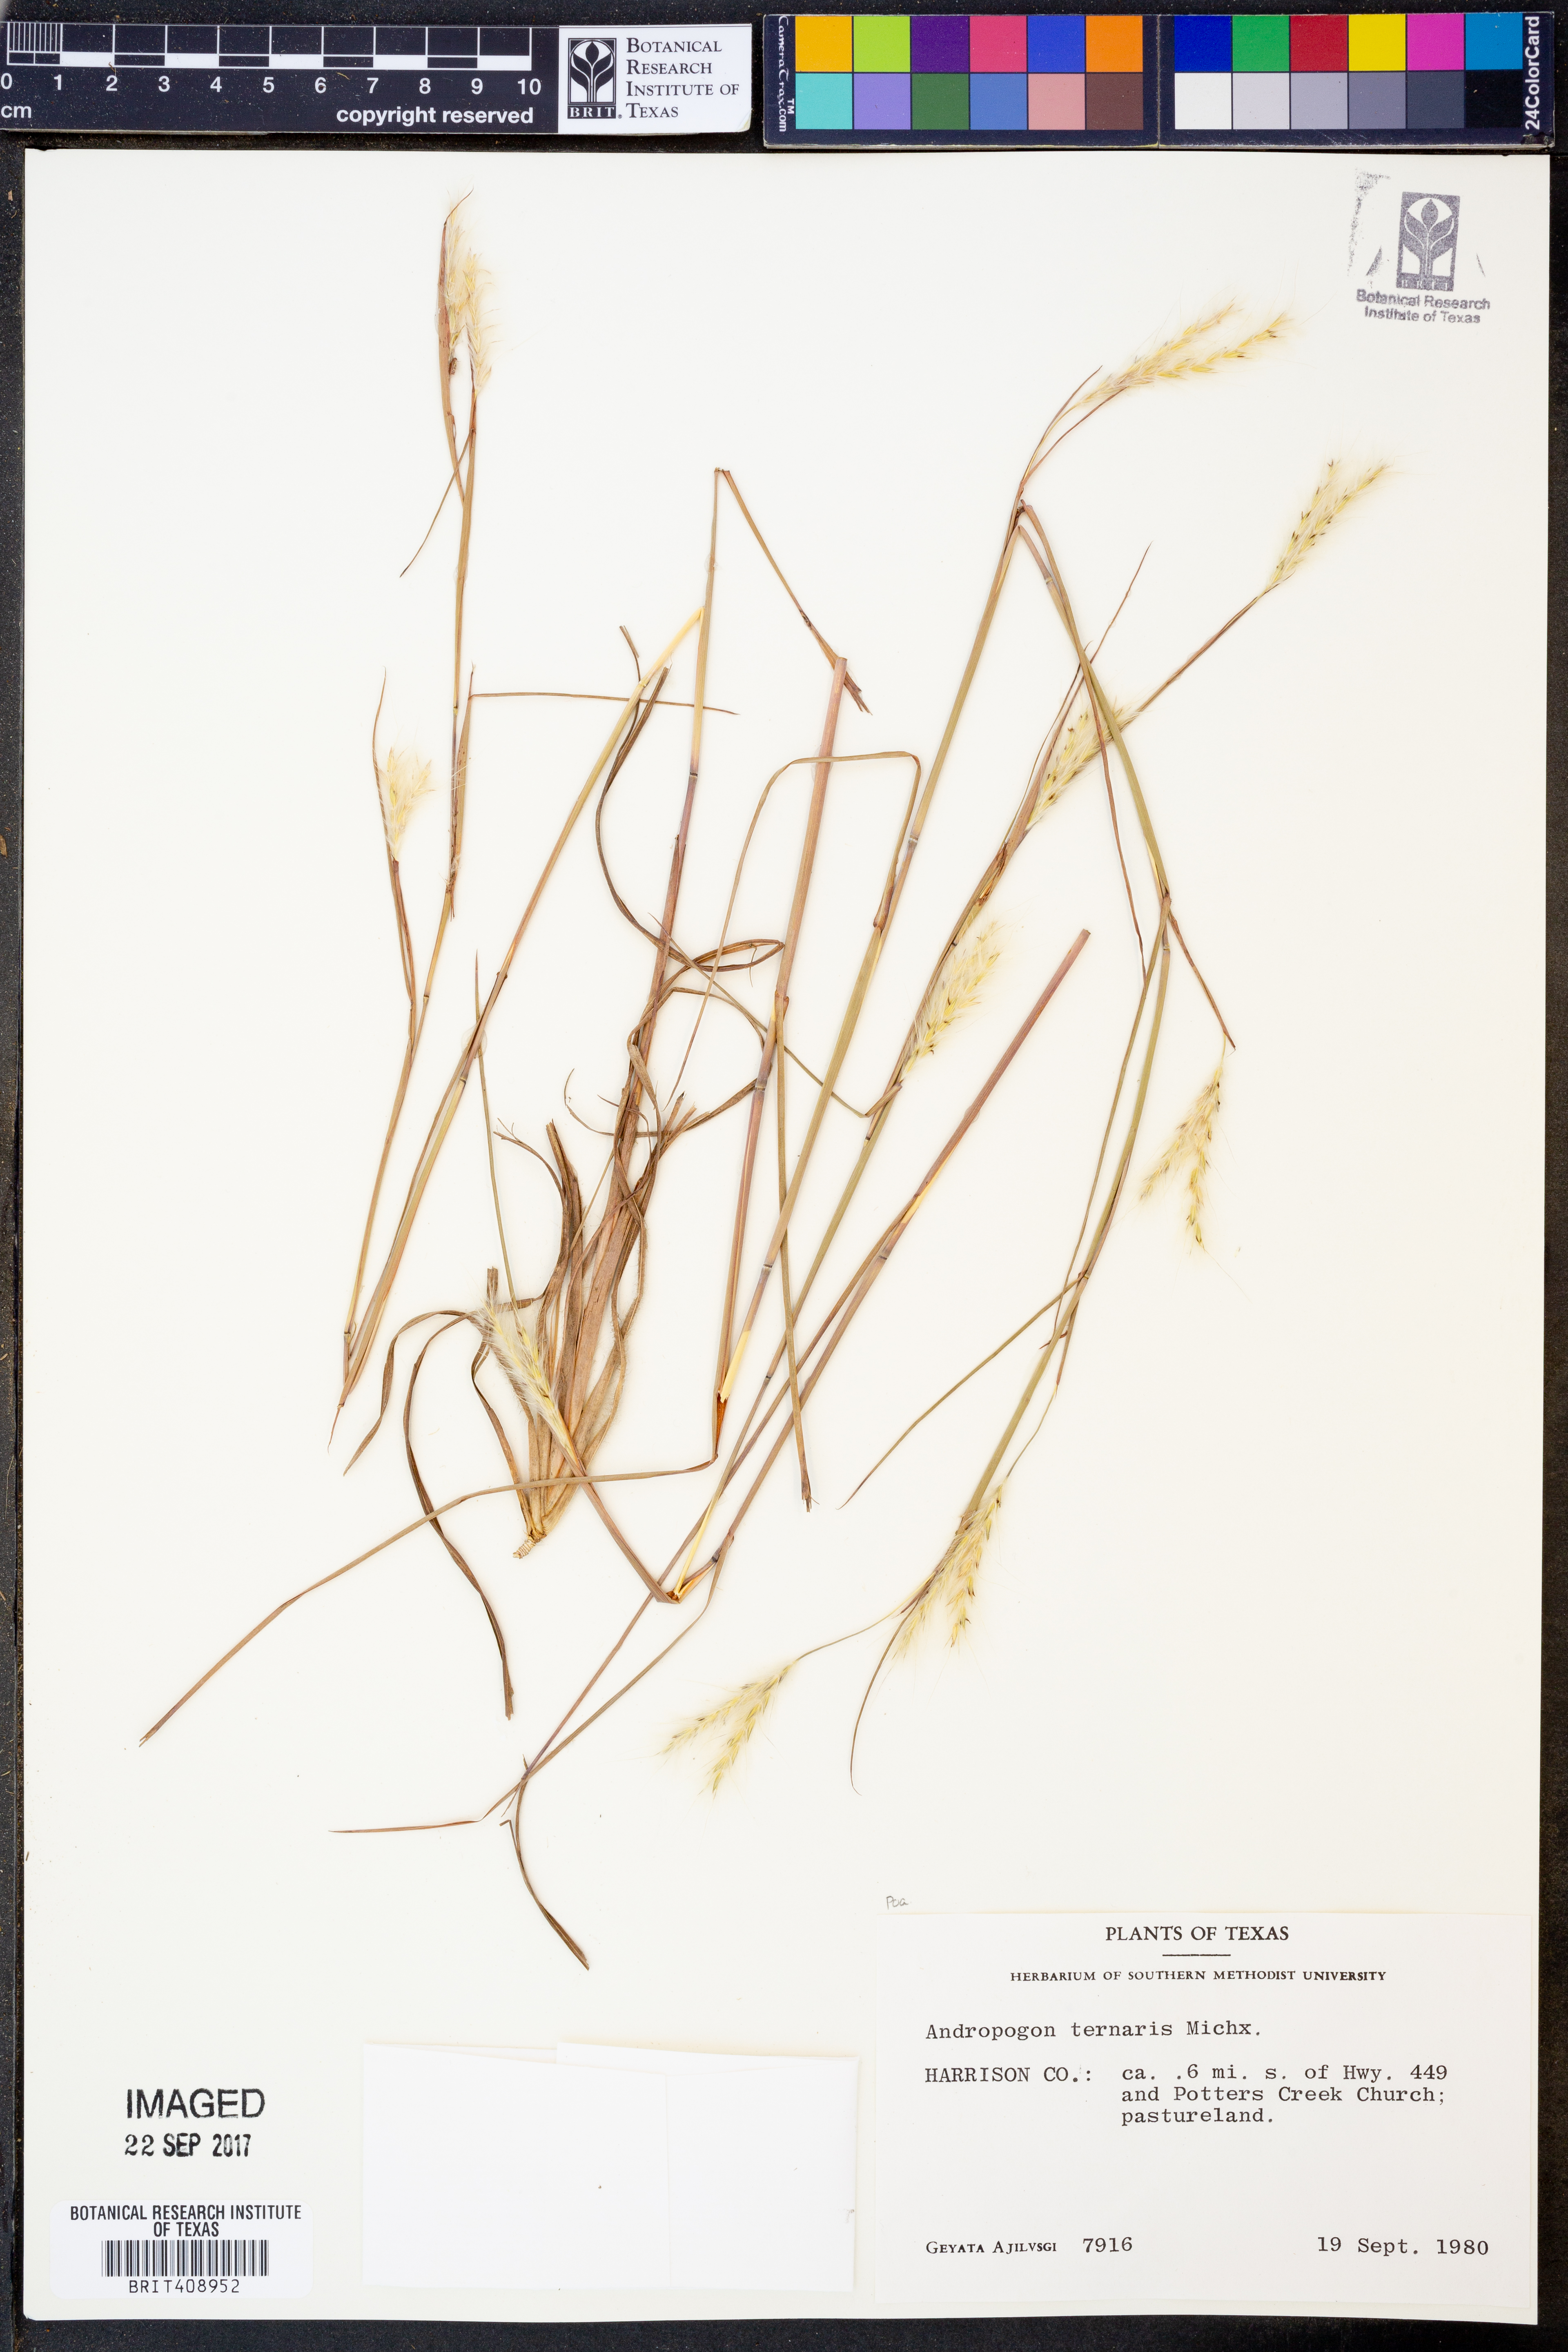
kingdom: Plantae
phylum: Tracheophyta
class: Liliopsida
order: Poales
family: Poaceae
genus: Andropogon
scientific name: Andropogon ternarius
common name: Split bluestem
